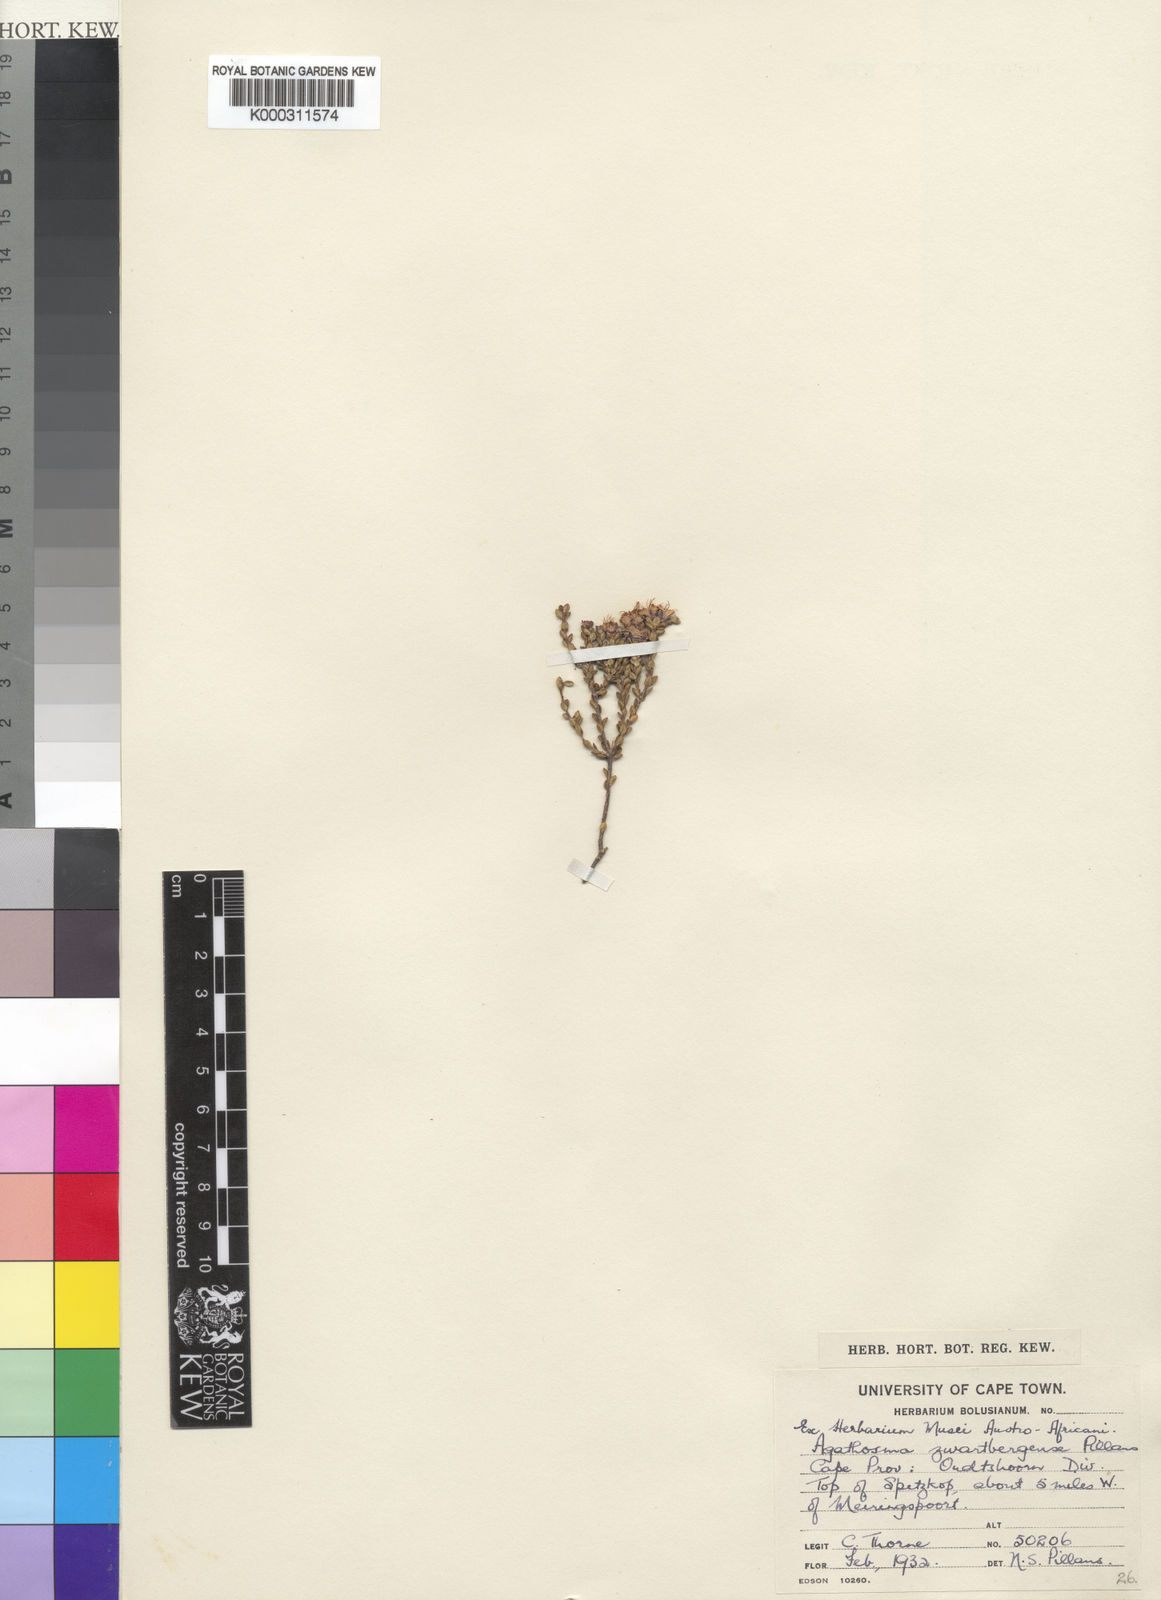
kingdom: Plantae
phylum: Tracheophyta
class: Magnoliopsida
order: Sapindales
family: Rutaceae
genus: Agathosma
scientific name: Agathosma
